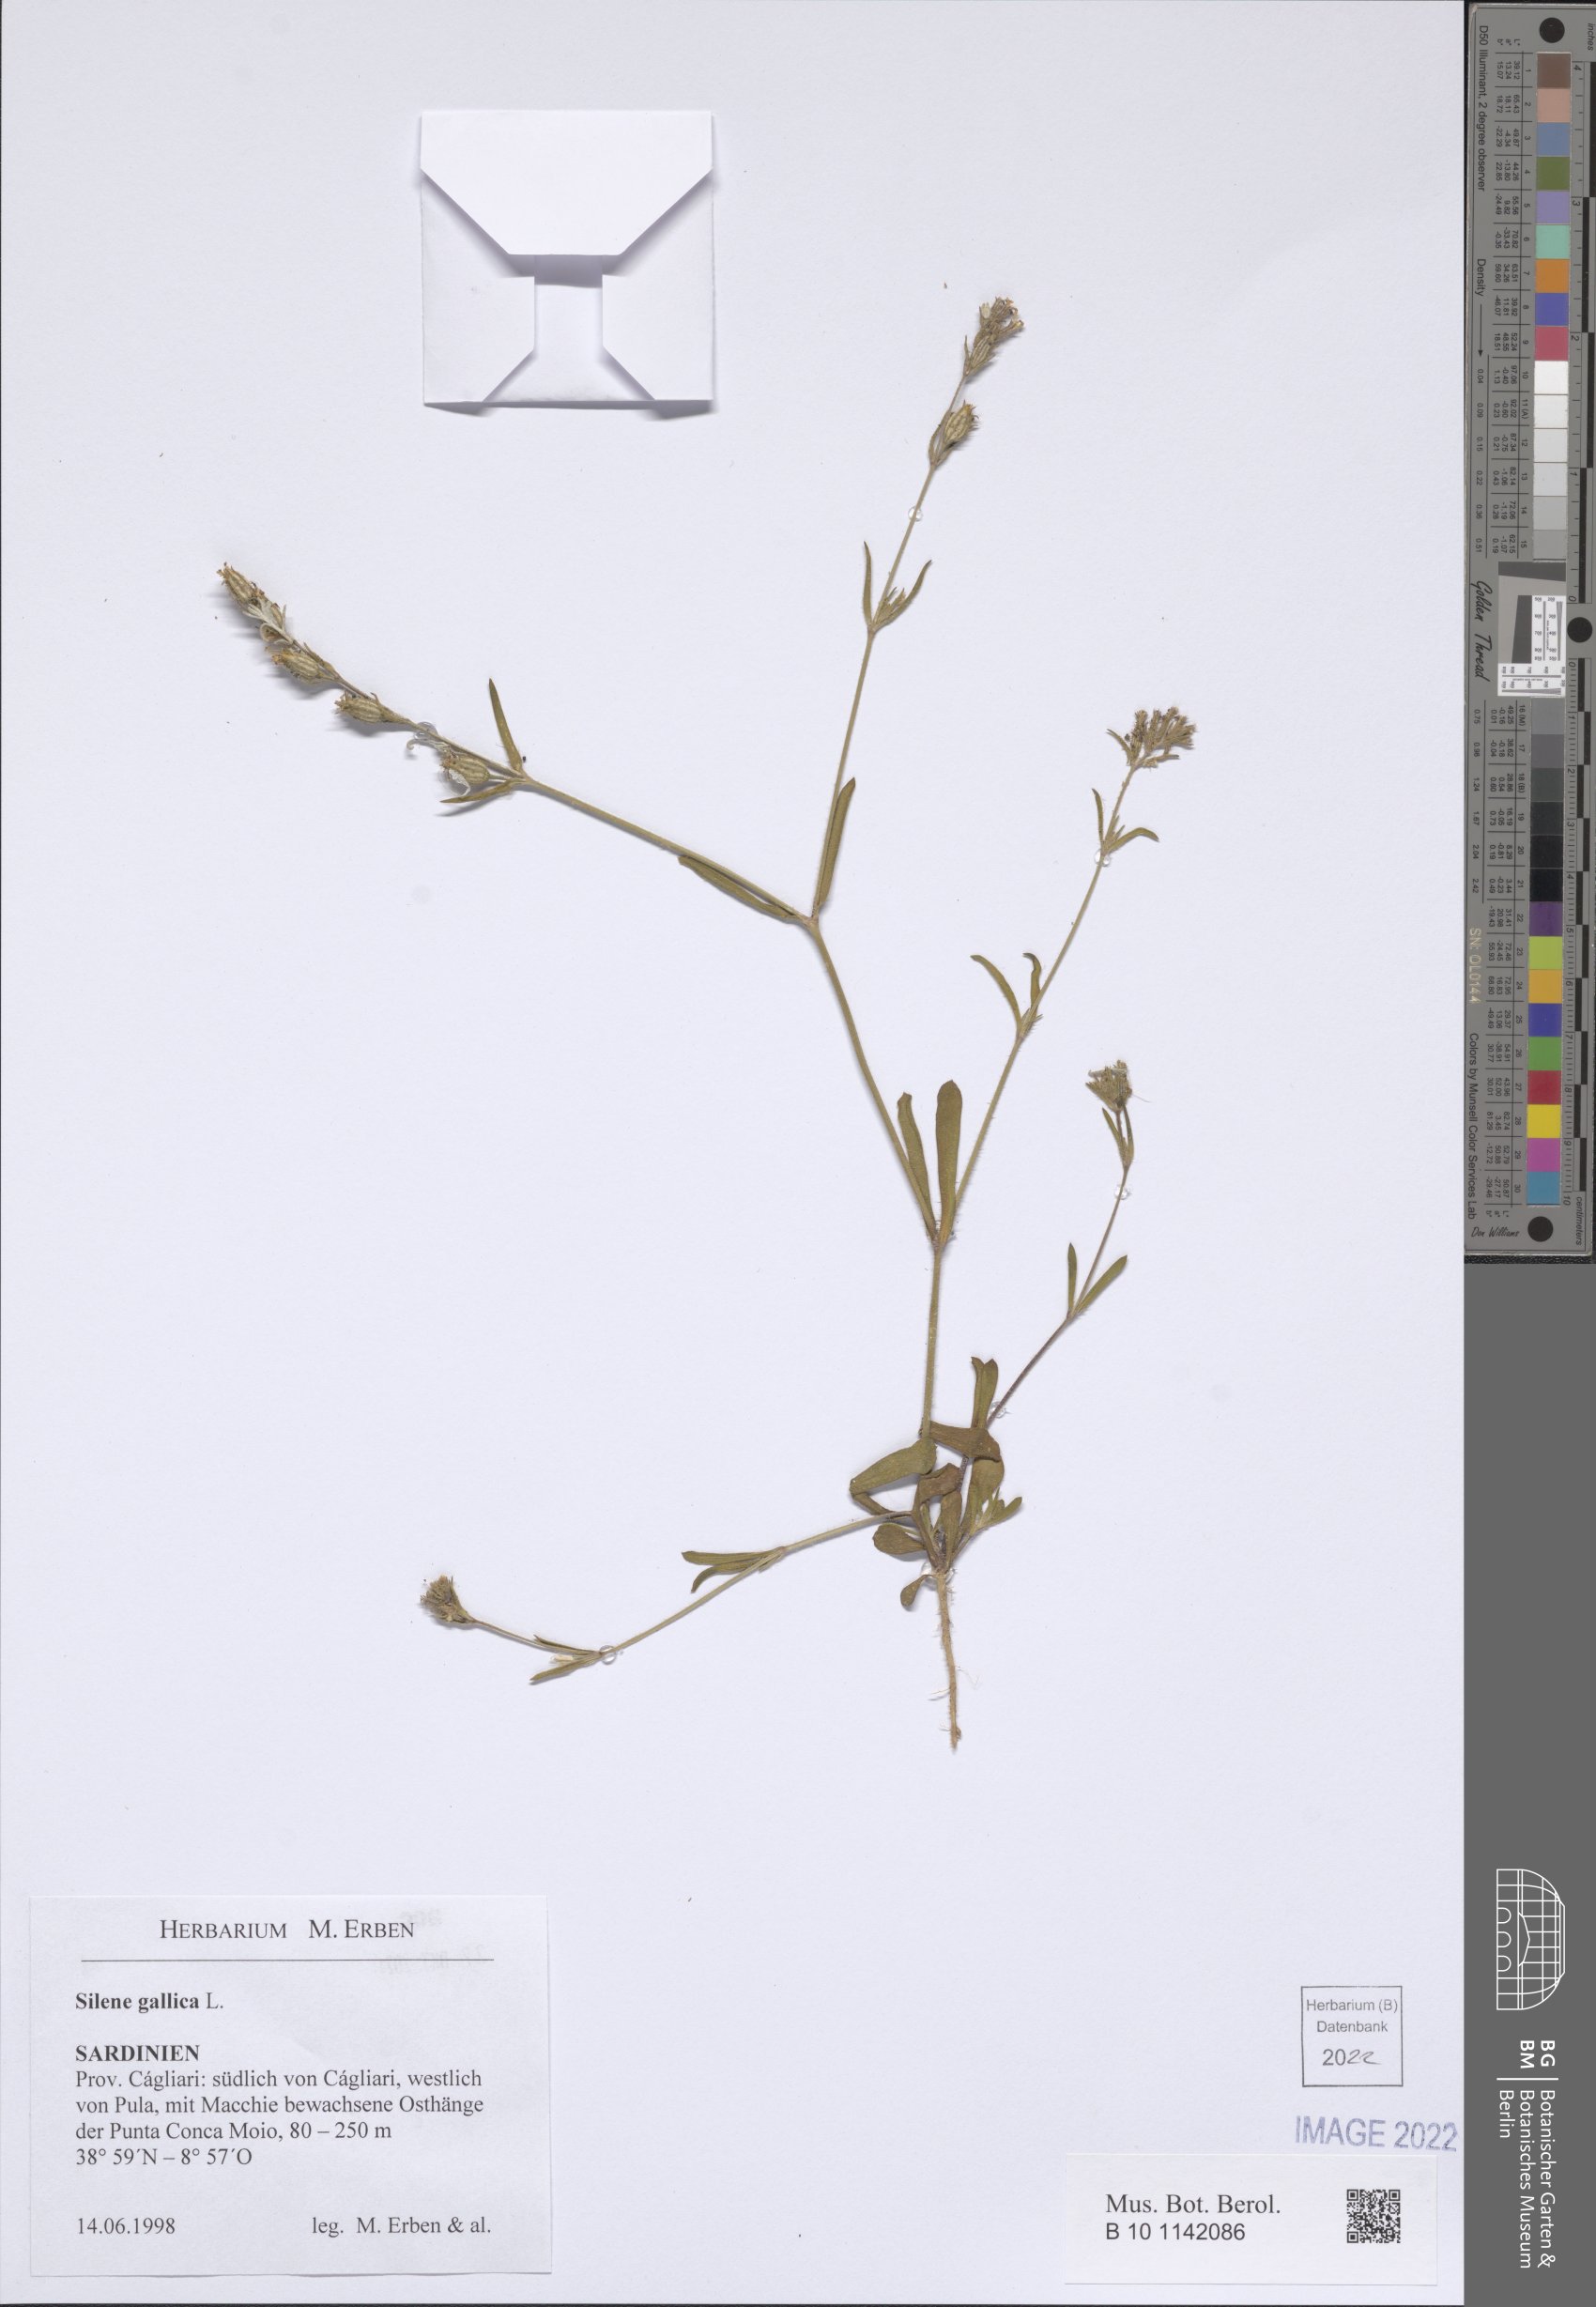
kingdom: Plantae
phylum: Tracheophyta
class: Magnoliopsida
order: Caryophyllales
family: Caryophyllaceae
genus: Silene
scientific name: Silene gallica
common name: Small-flowered catchfly
